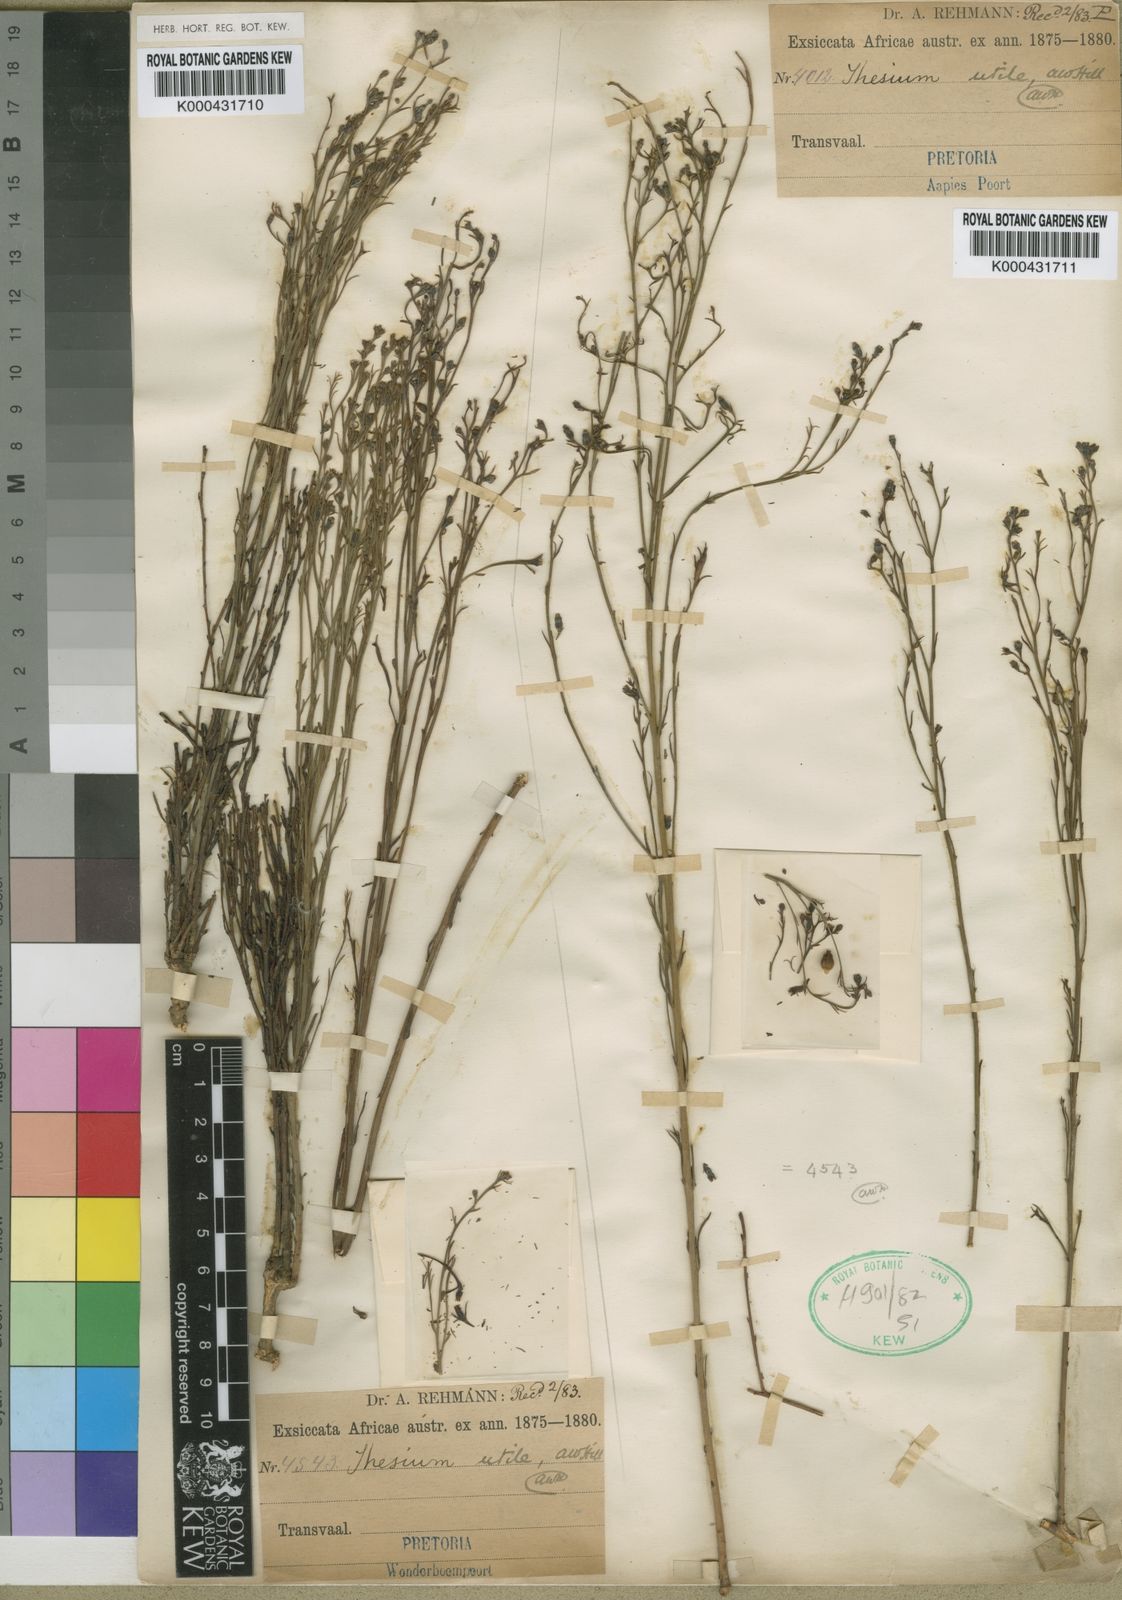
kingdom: Plantae
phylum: Tracheophyta
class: Magnoliopsida
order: Santalales
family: Thesiaceae
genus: Thesium
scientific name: Thesium utile
